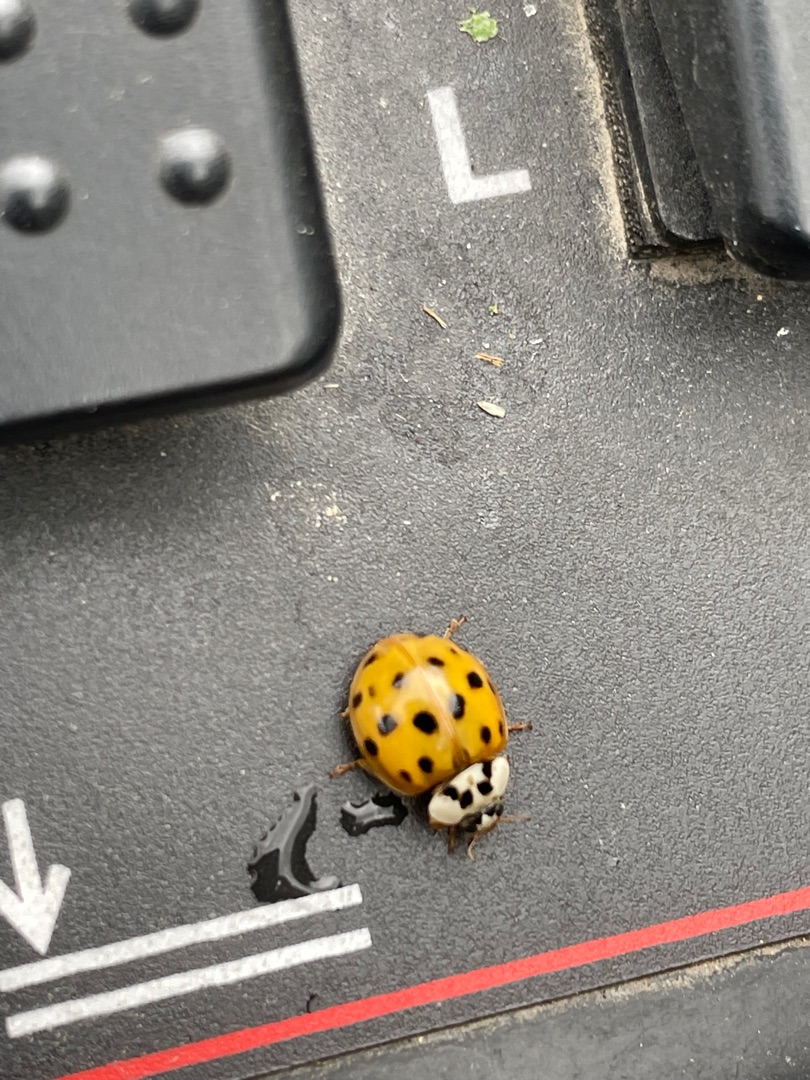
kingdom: Animalia
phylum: Arthropoda
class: Insecta
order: Coleoptera
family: Coccinellidae
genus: Harmonia
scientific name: Harmonia axyridis
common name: Harlekinmariehøne
